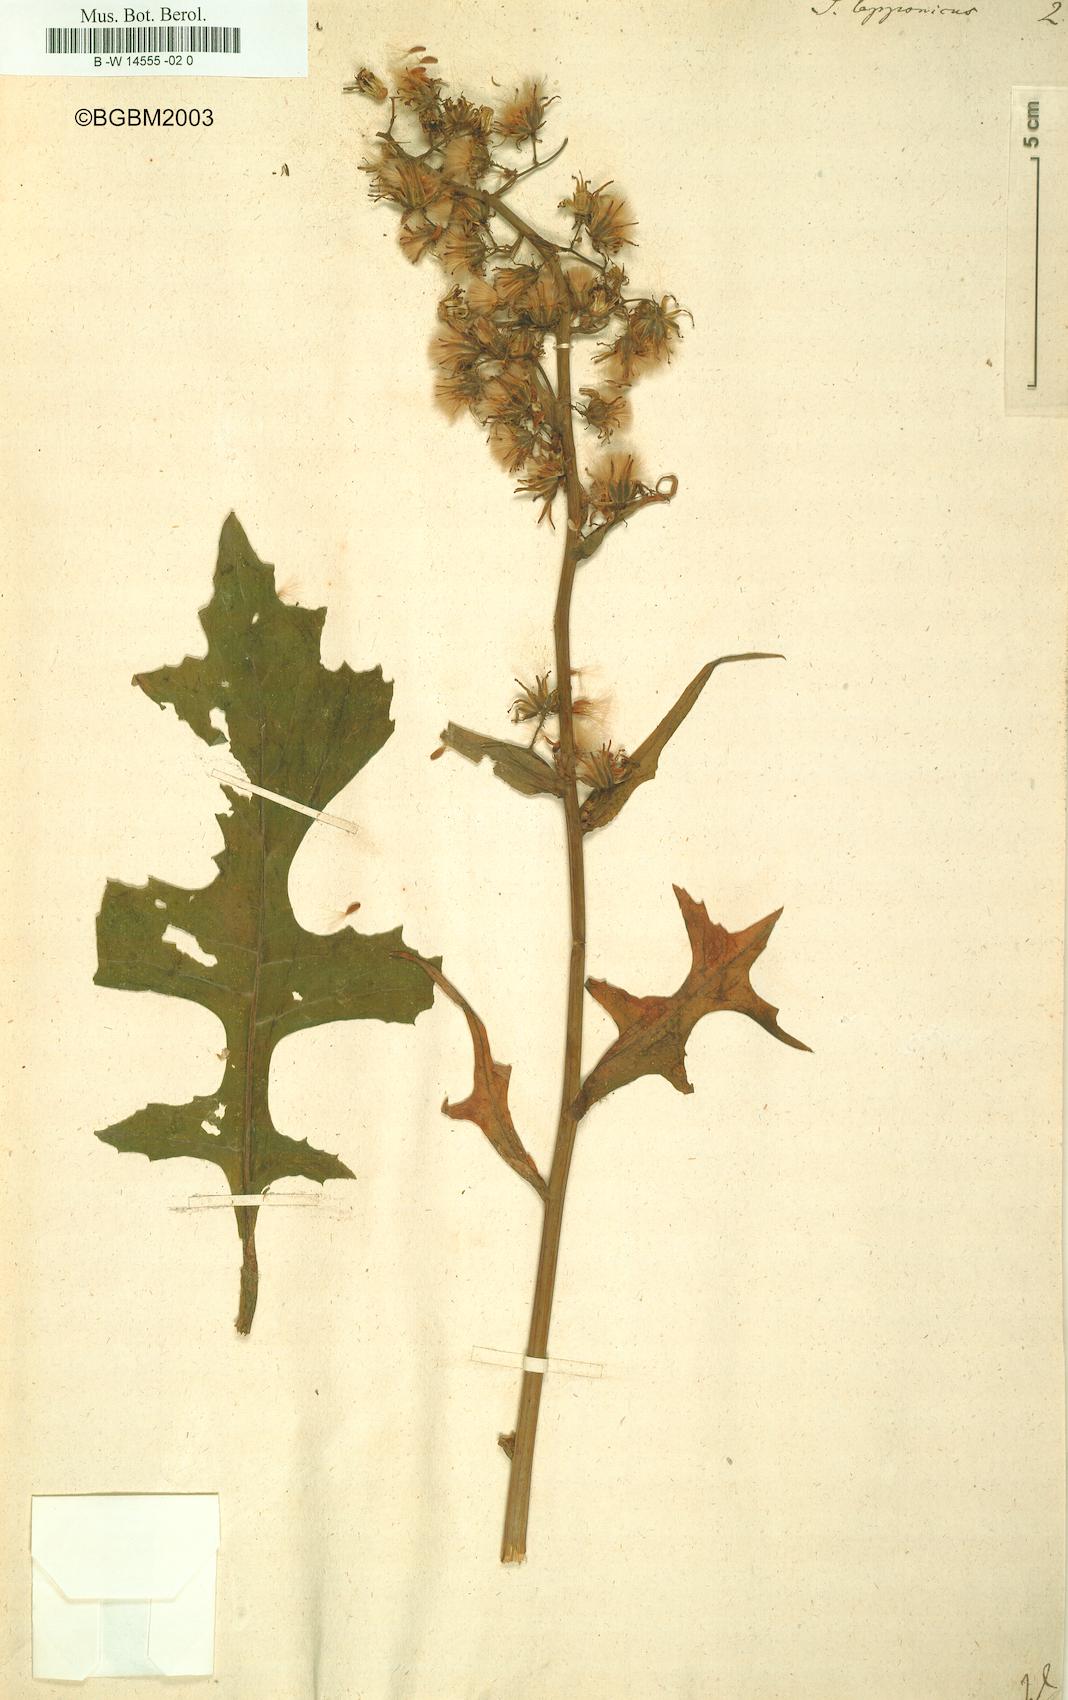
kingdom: Plantae
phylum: Tracheophyta
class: Magnoliopsida
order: Asterales
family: Asteraceae
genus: Cicerbita
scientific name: Cicerbita alpina
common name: Alpine blue-sow-thistle
